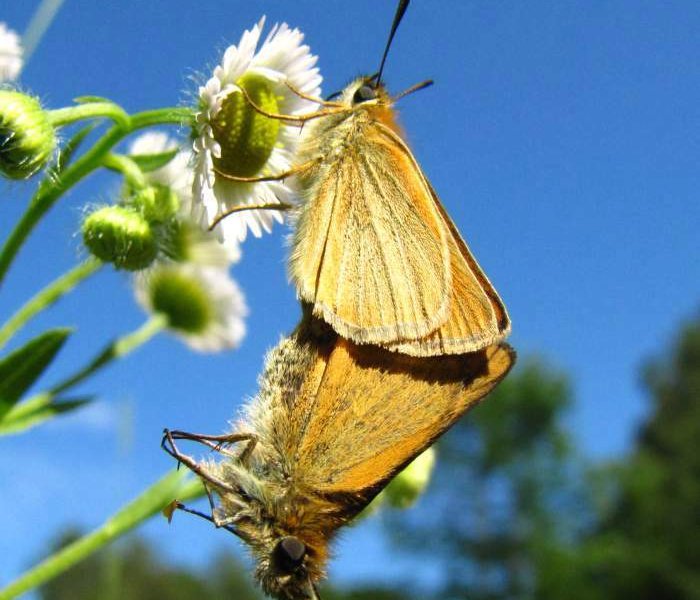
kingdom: Animalia
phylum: Arthropoda
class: Insecta
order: Lepidoptera
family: Hesperiidae
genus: Thymelicus
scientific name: Thymelicus lineola
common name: European Skipper
